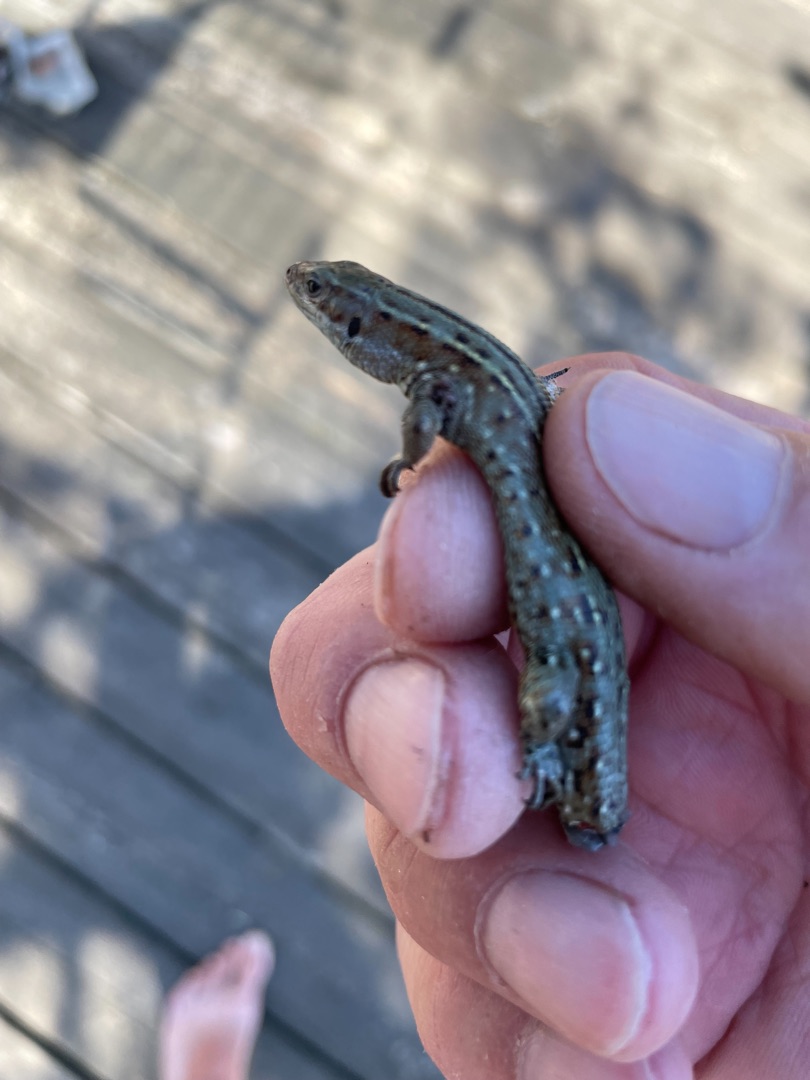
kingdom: Animalia
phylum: Chordata
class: Squamata
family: Lacertidae
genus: Zootoca
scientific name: Zootoca vivipara
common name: Skovfirben
